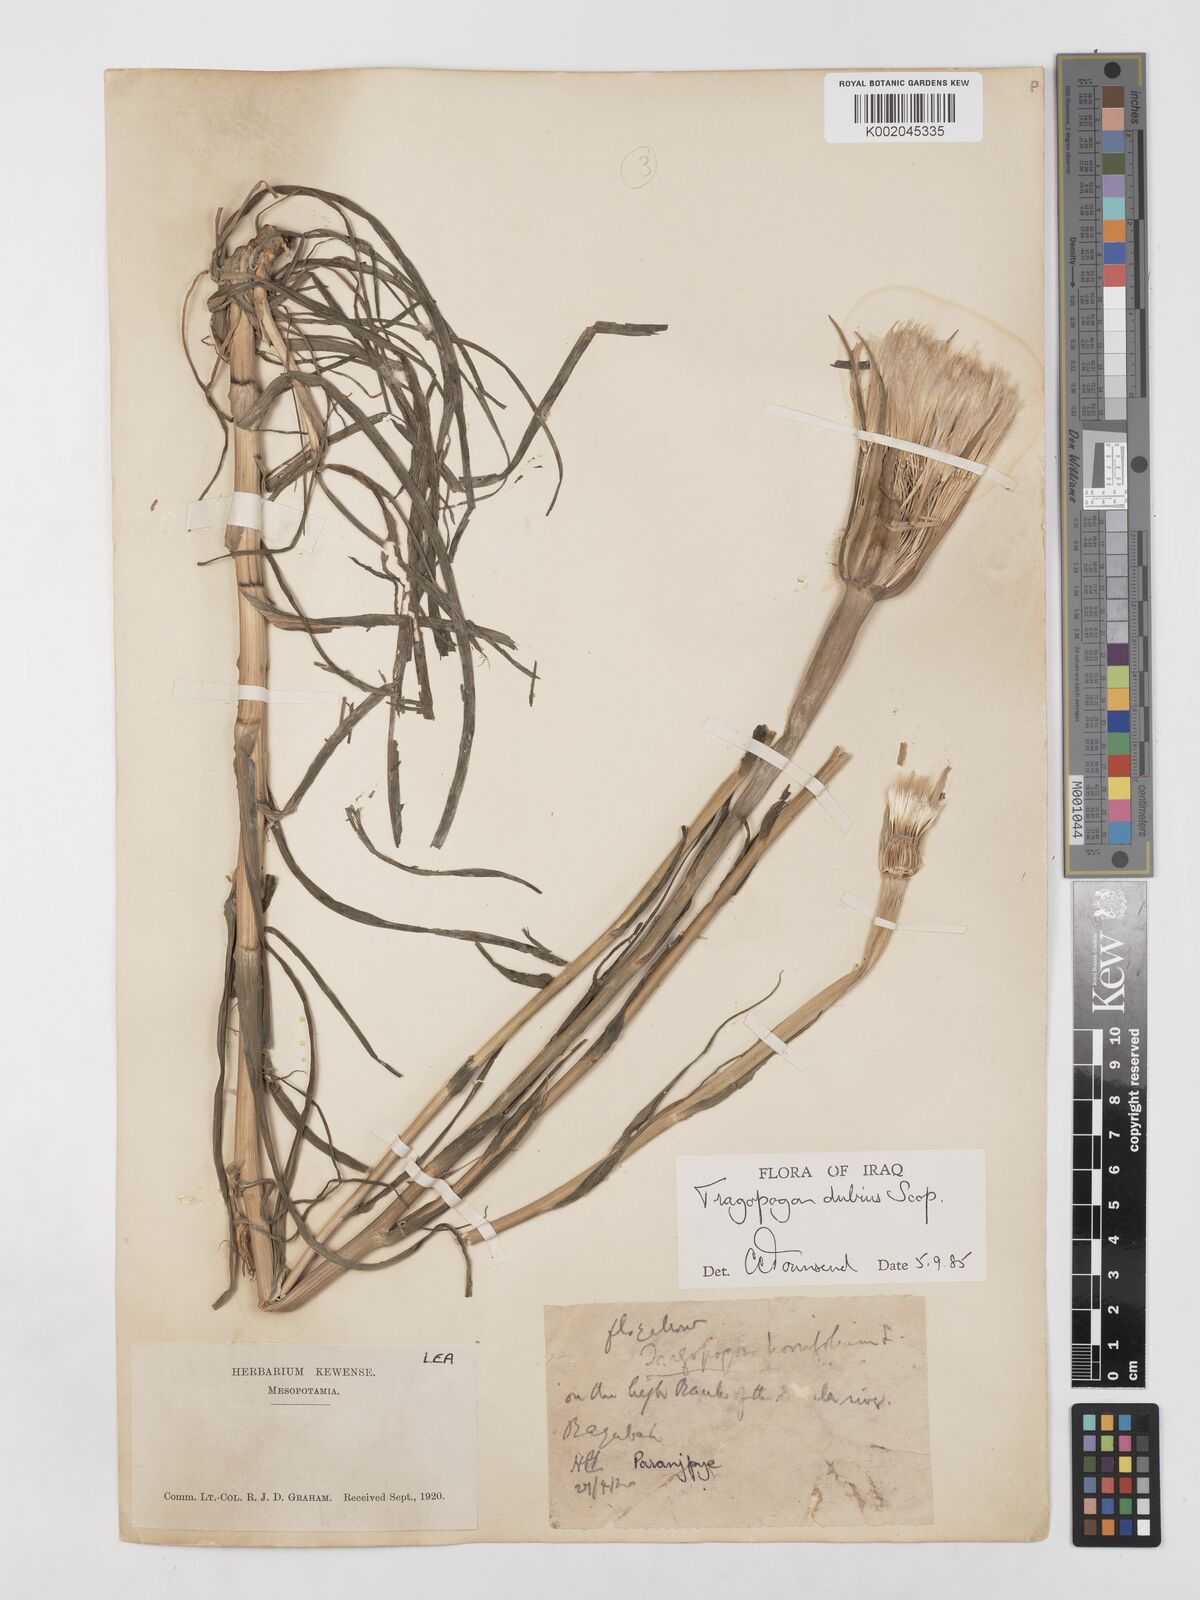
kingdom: Plantae
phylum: Tracheophyta
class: Magnoliopsida
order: Asterales
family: Asteraceae
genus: Tragopogon
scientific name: Tragopogon dubius
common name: Yellow salsify
